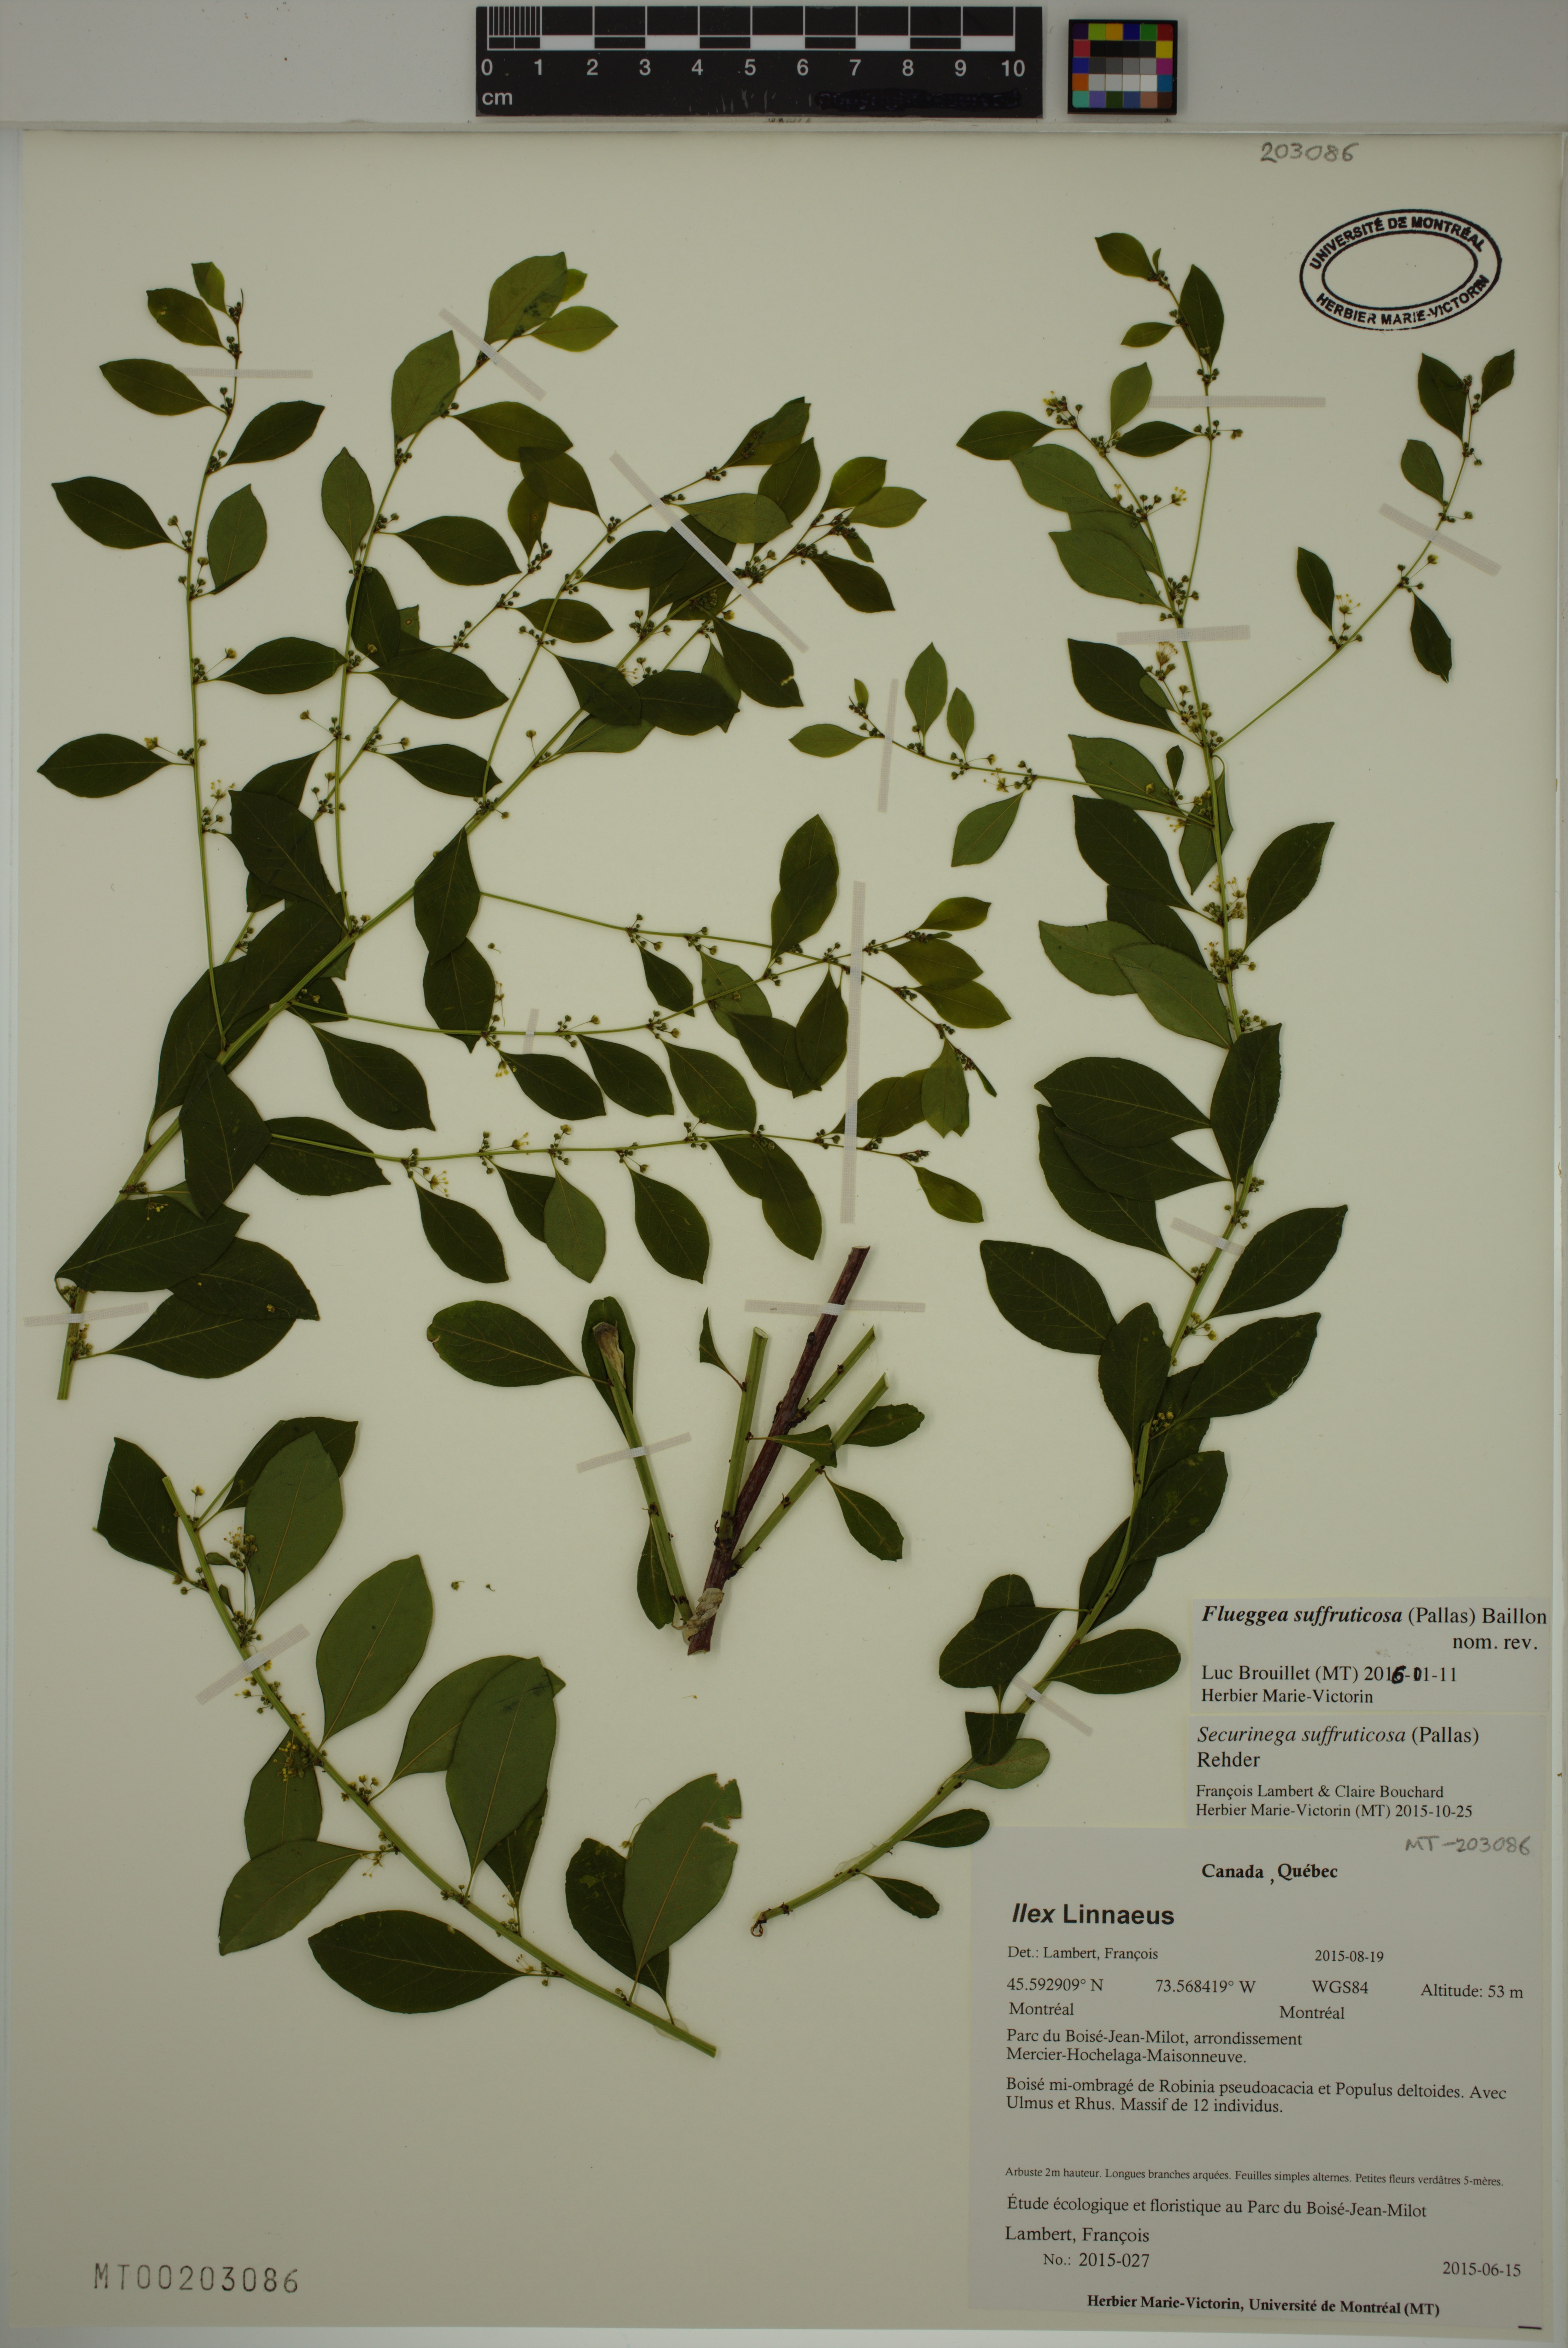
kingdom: Plantae
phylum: Tracheophyta
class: Magnoliopsida
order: Malpighiales
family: Phyllanthaceae
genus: Flueggea
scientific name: Flueggea suffruticosa
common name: Arching bushweed
